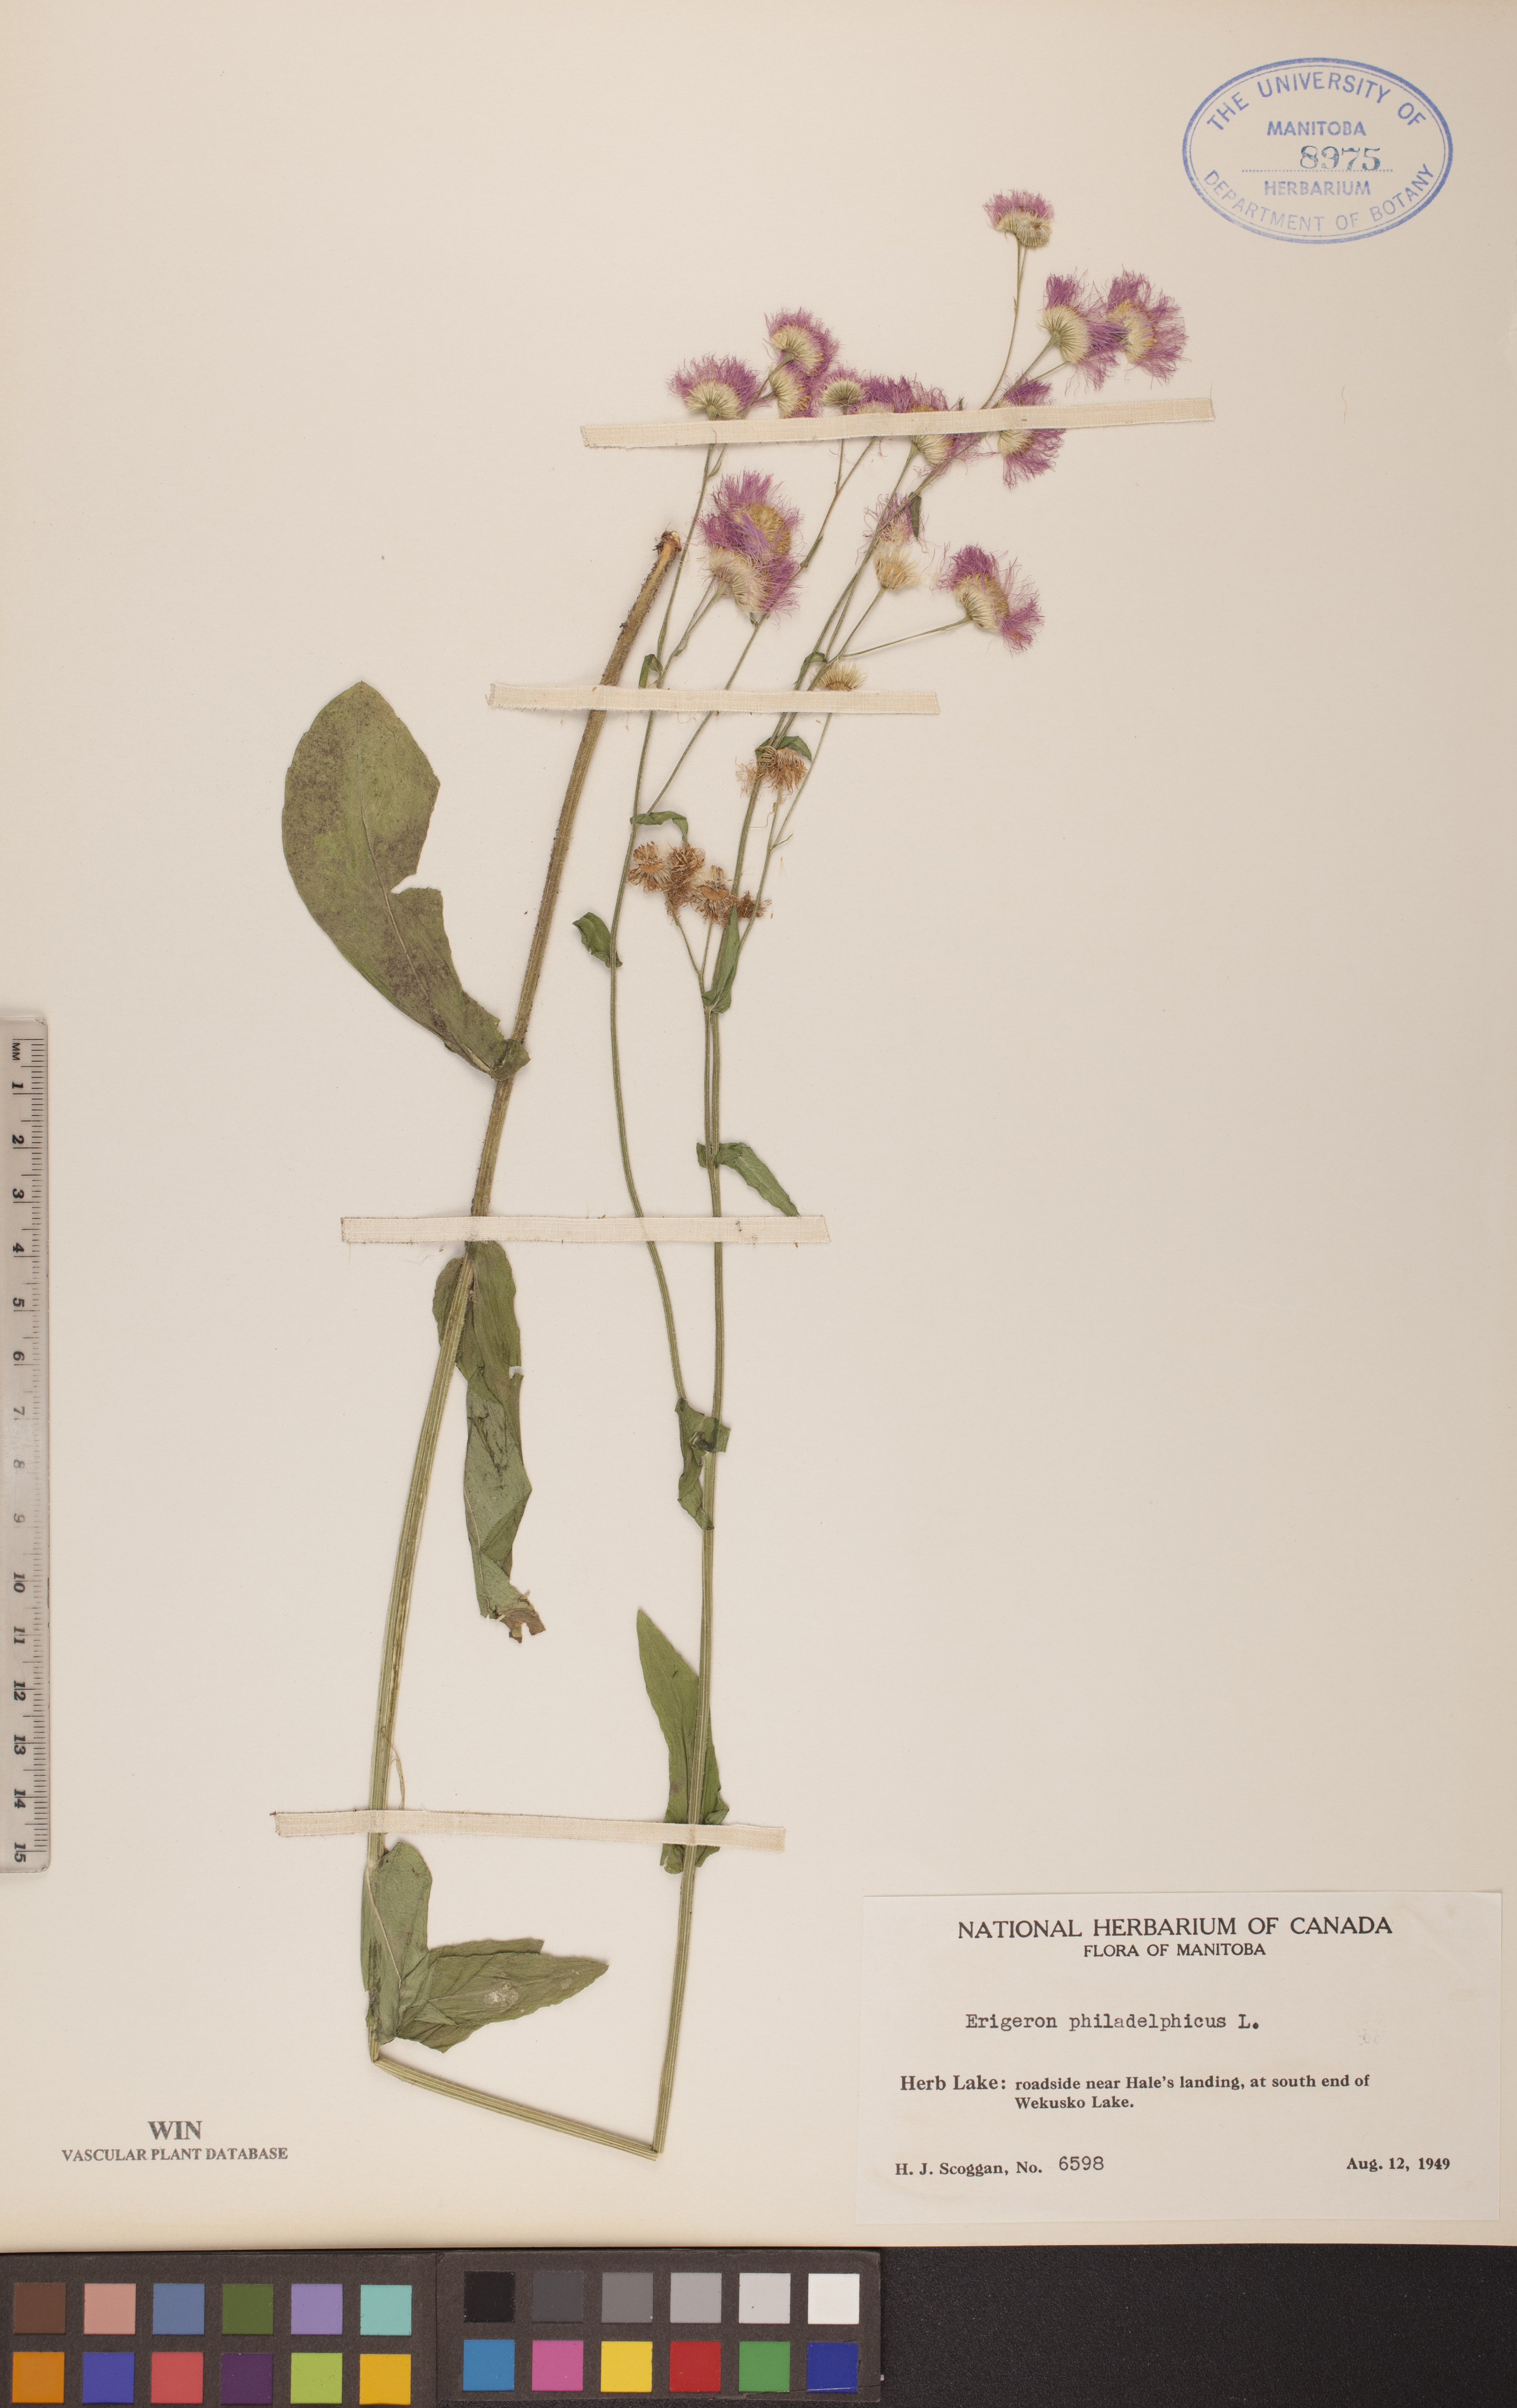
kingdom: Plantae
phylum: Tracheophyta
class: Magnoliopsida
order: Asterales
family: Asteraceae
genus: Erigeron
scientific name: Erigeron philadelphicus
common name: Robin's-plantain
